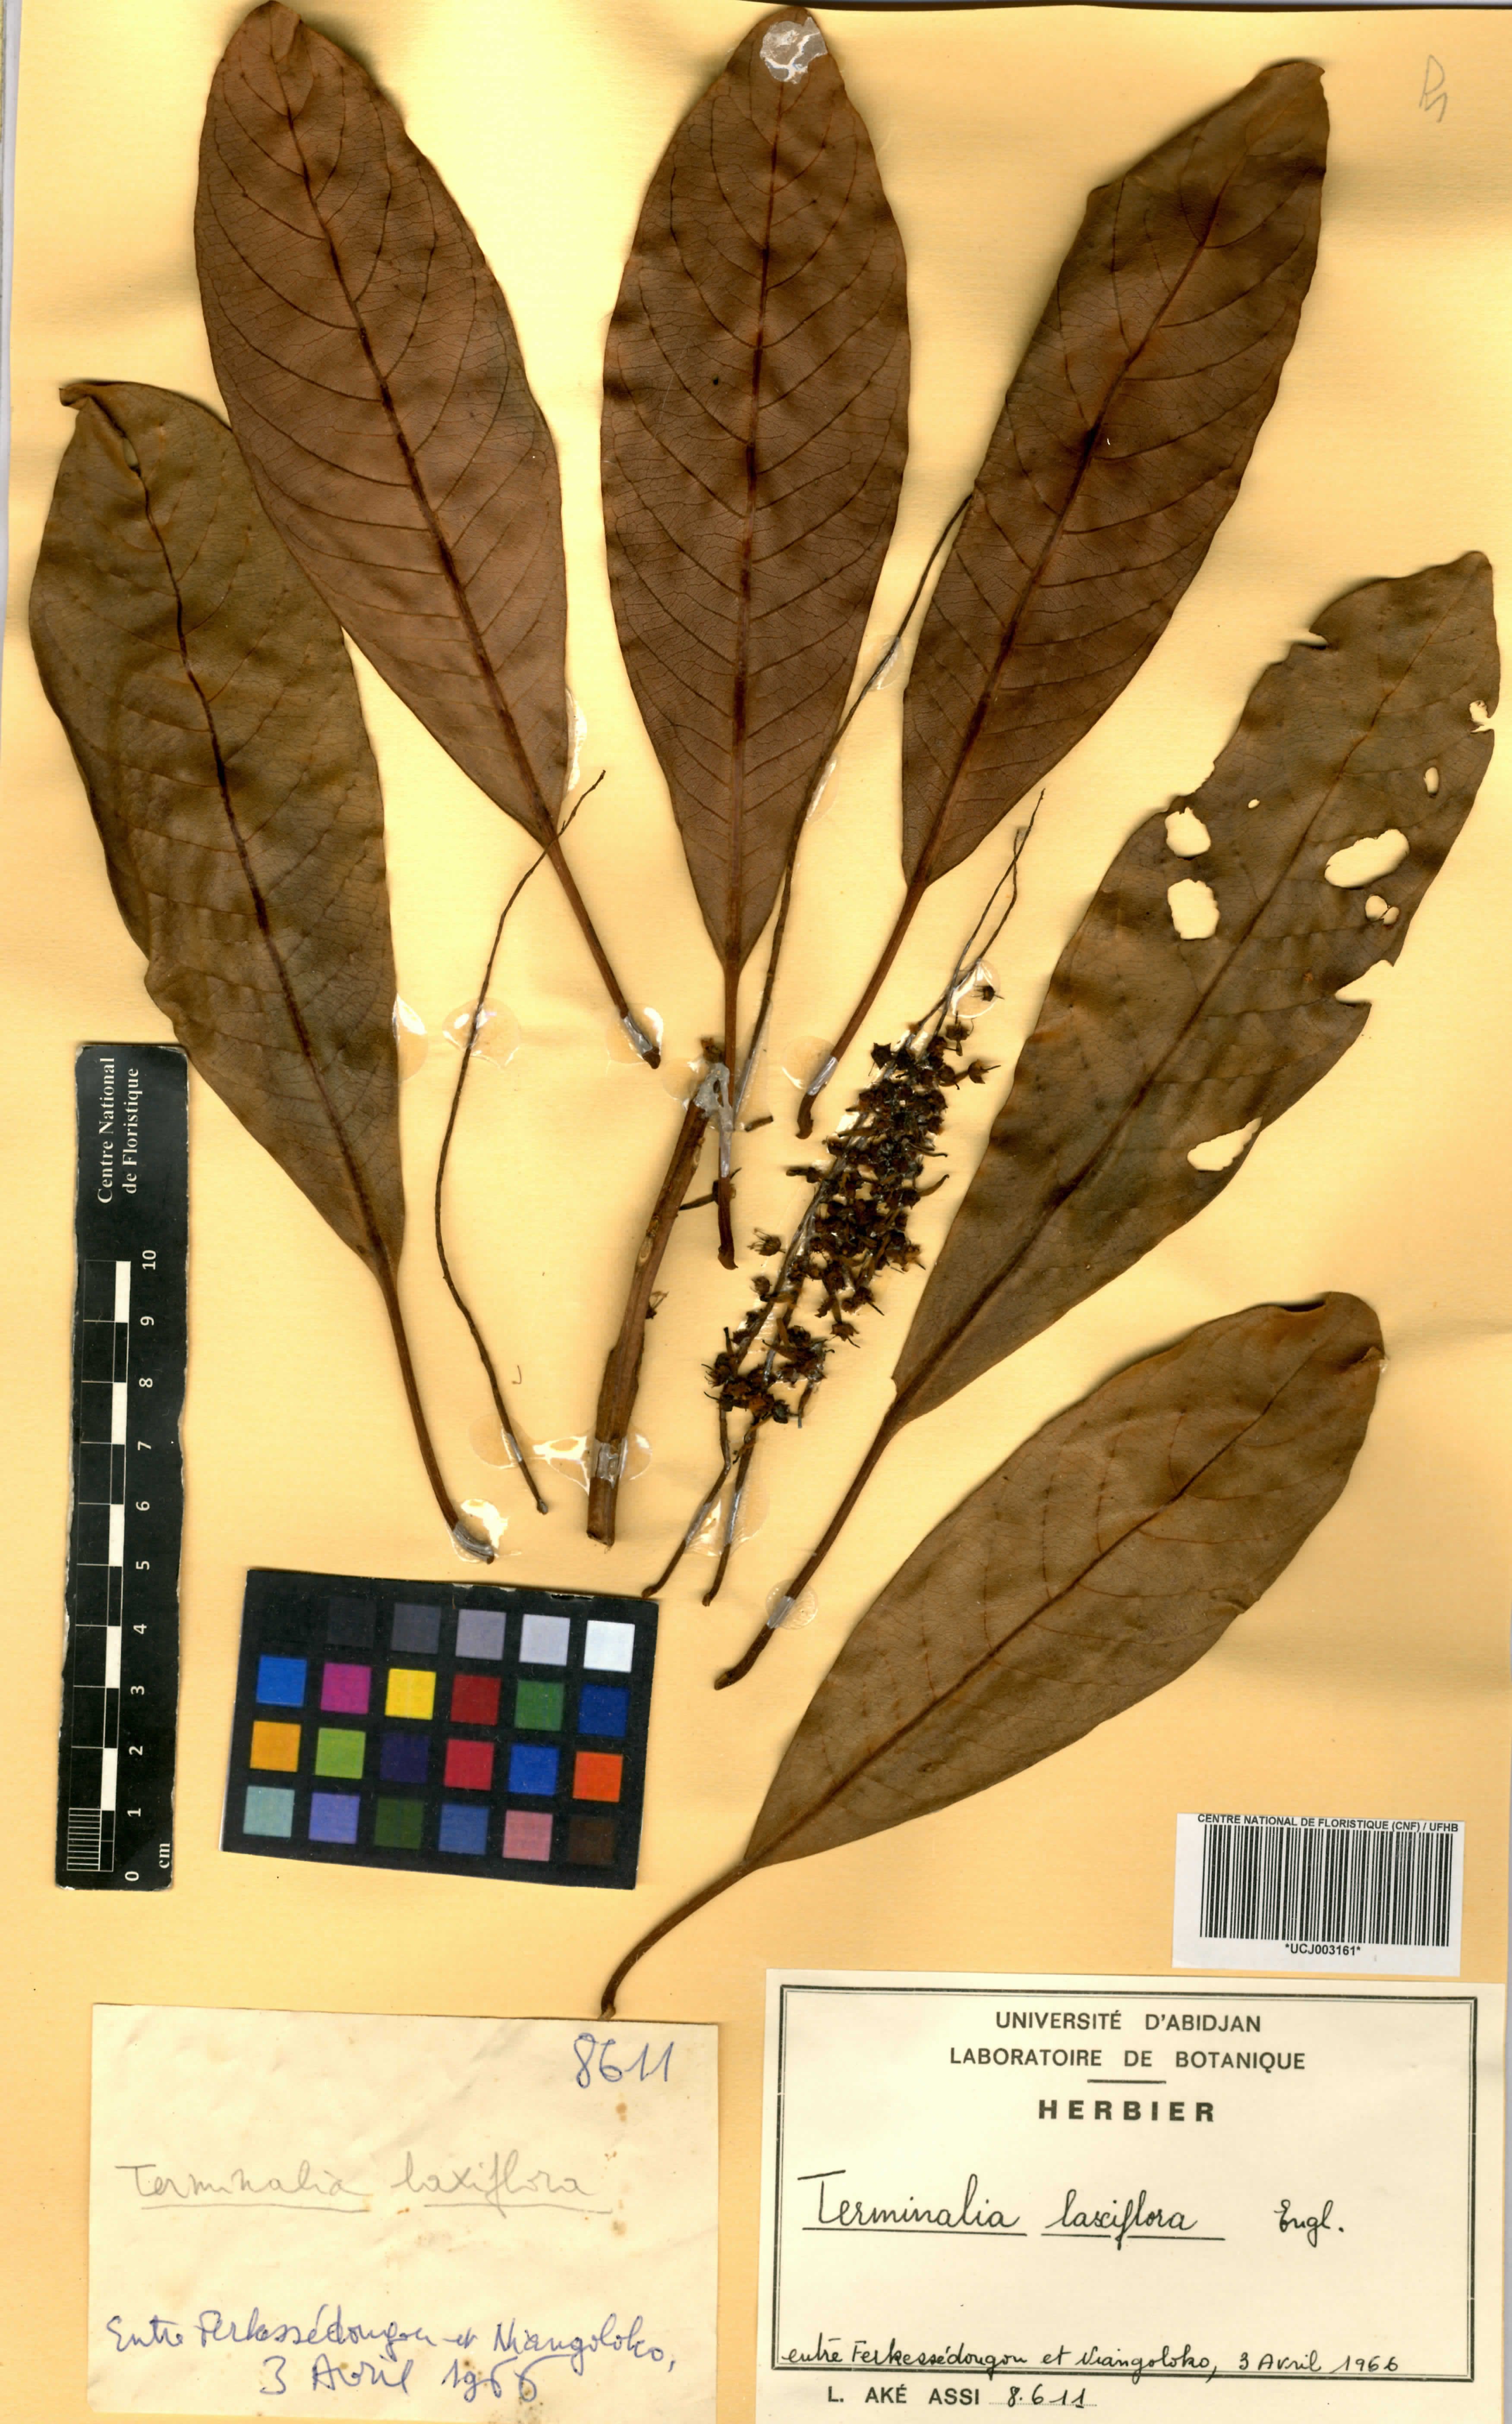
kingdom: Plantae
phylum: Tracheophyta
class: Magnoliopsida
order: Myrtales
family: Combretaceae
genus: Terminalia
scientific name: Terminalia laxiflora
